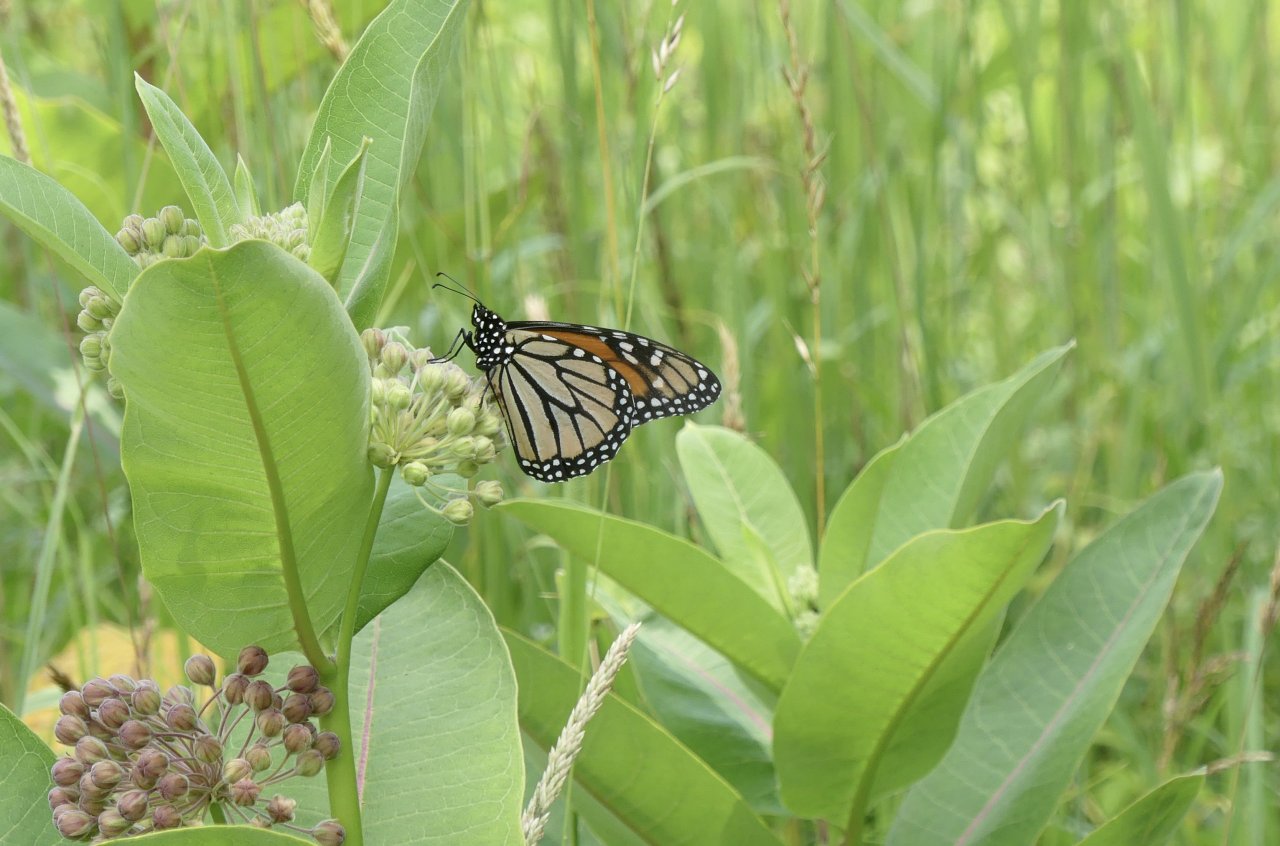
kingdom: Animalia
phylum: Arthropoda
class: Insecta
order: Lepidoptera
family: Nymphalidae
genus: Danaus
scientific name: Danaus plexippus
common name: Monarch
